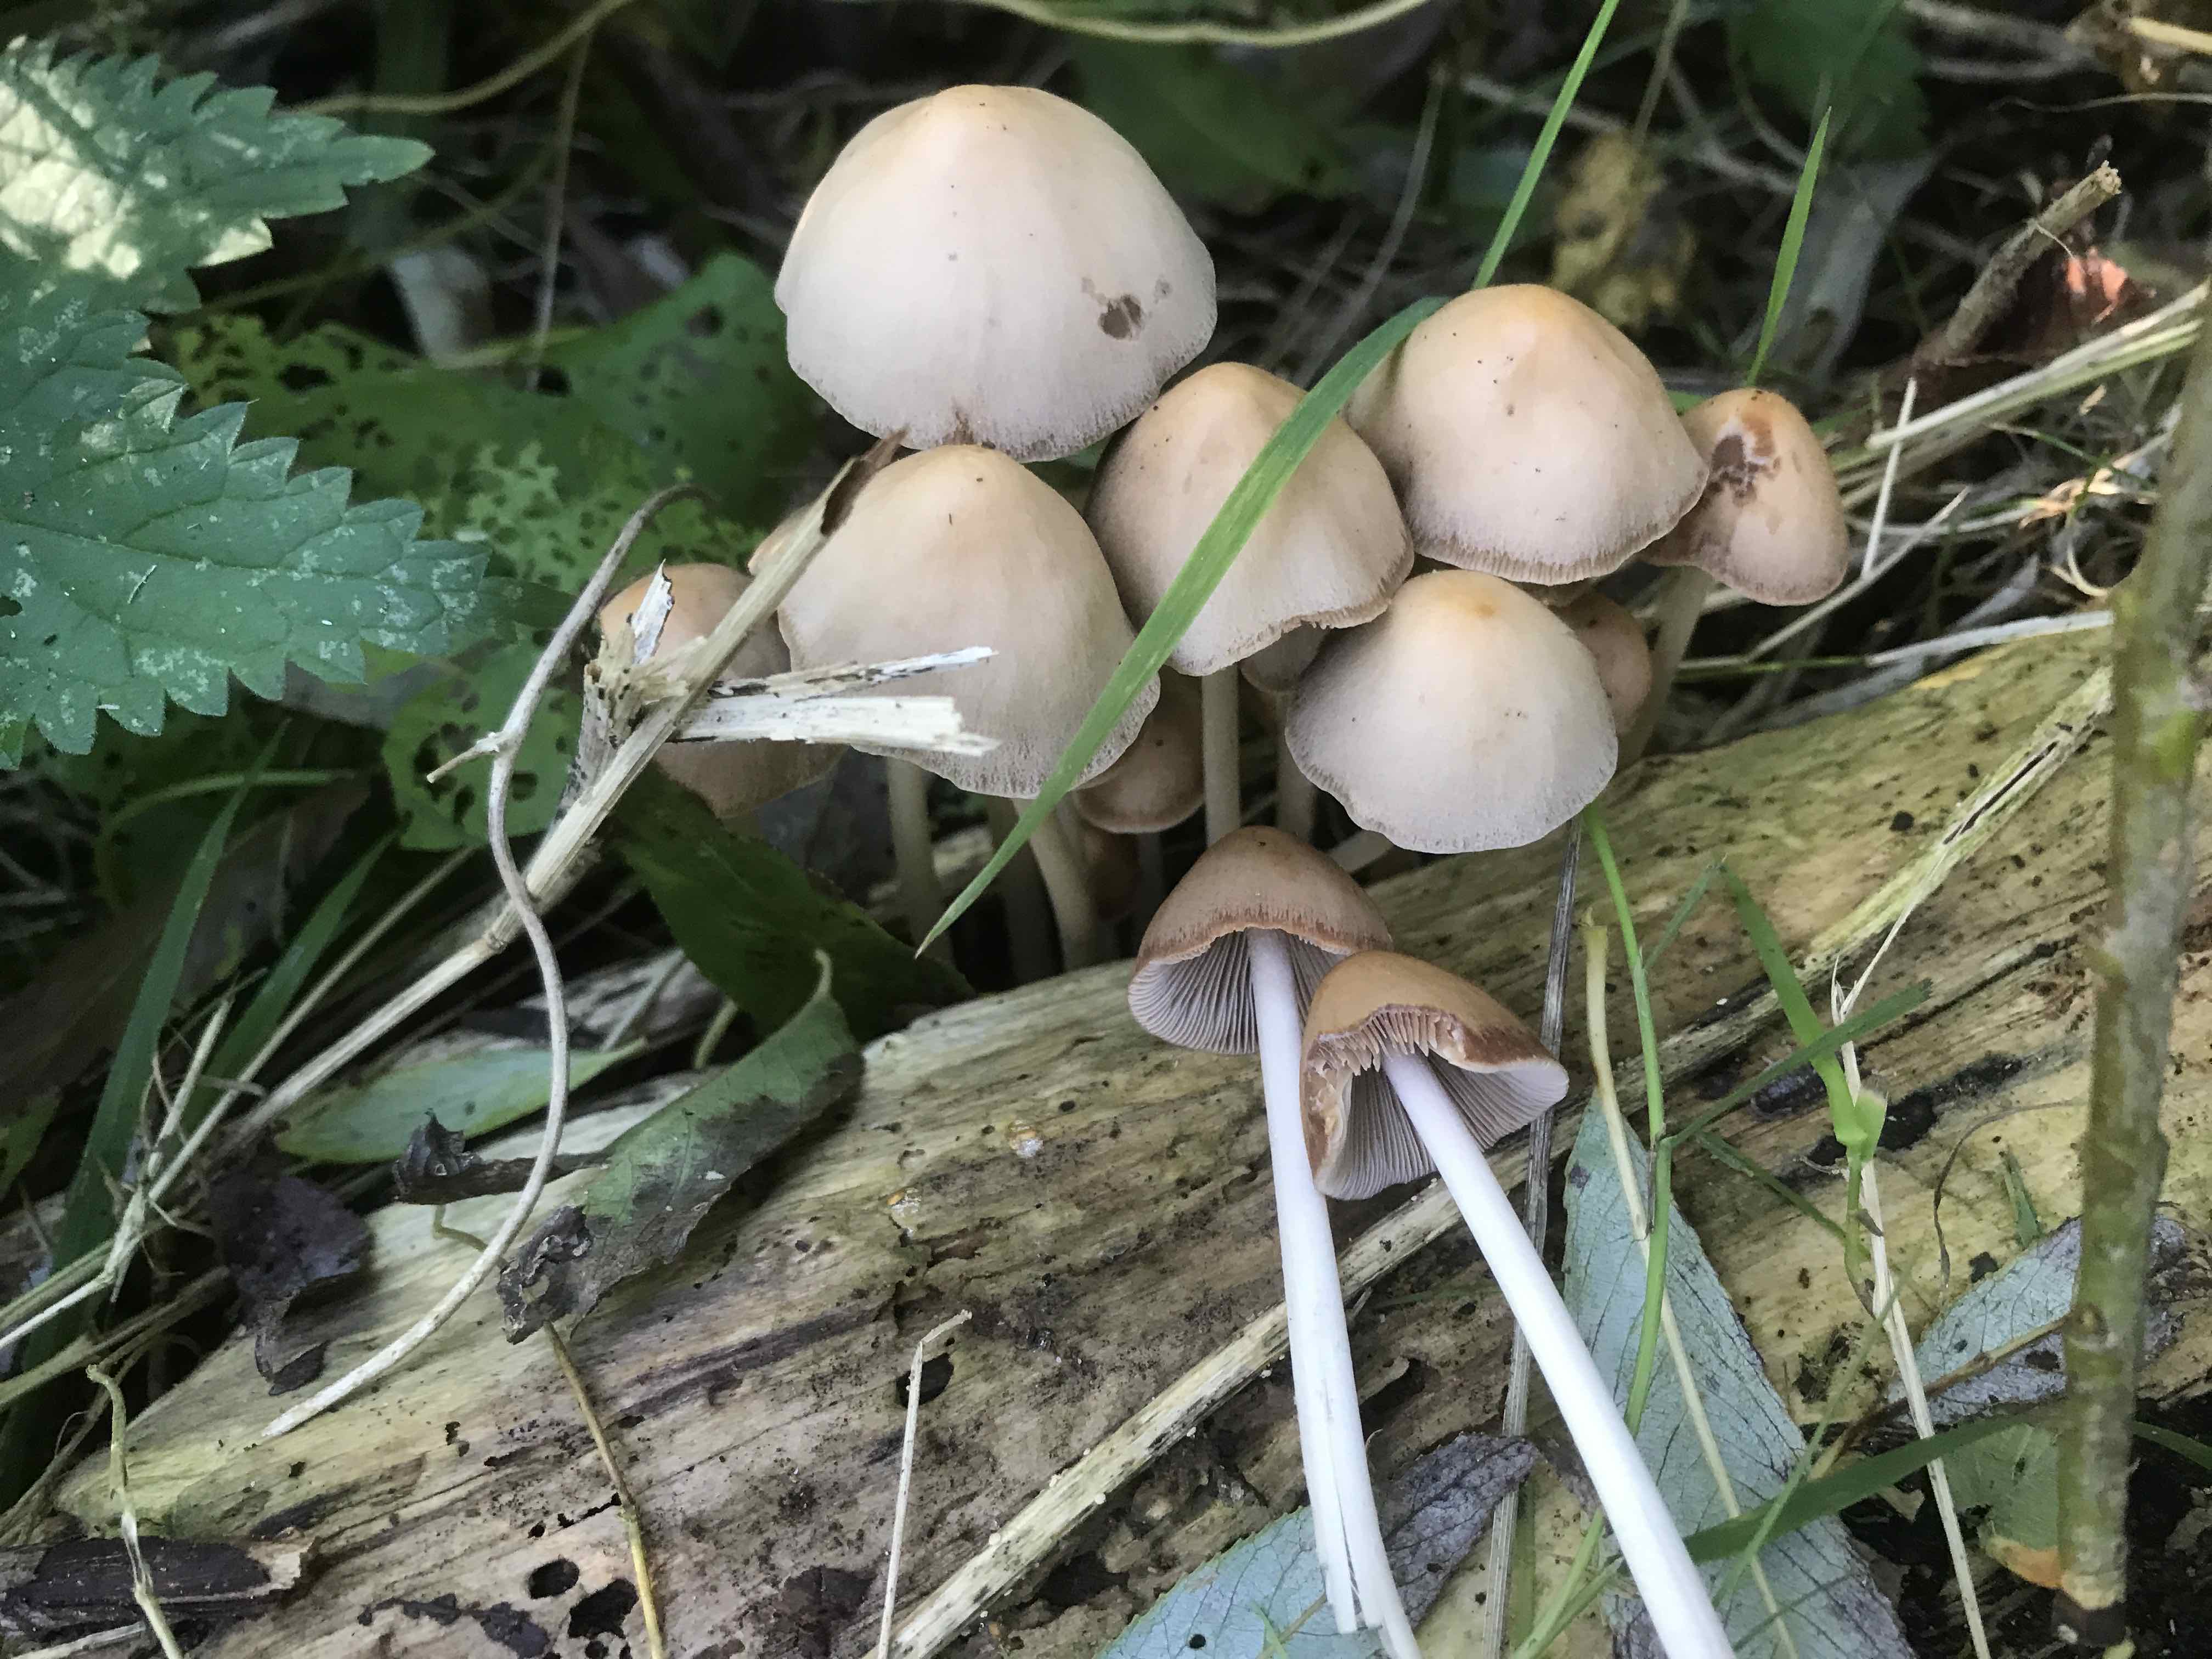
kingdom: Fungi
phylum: Basidiomycota
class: Agaricomycetes
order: Agaricales
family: Psathyrellaceae
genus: Parasola
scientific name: Parasola conopilea
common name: kegle-hjulhat
